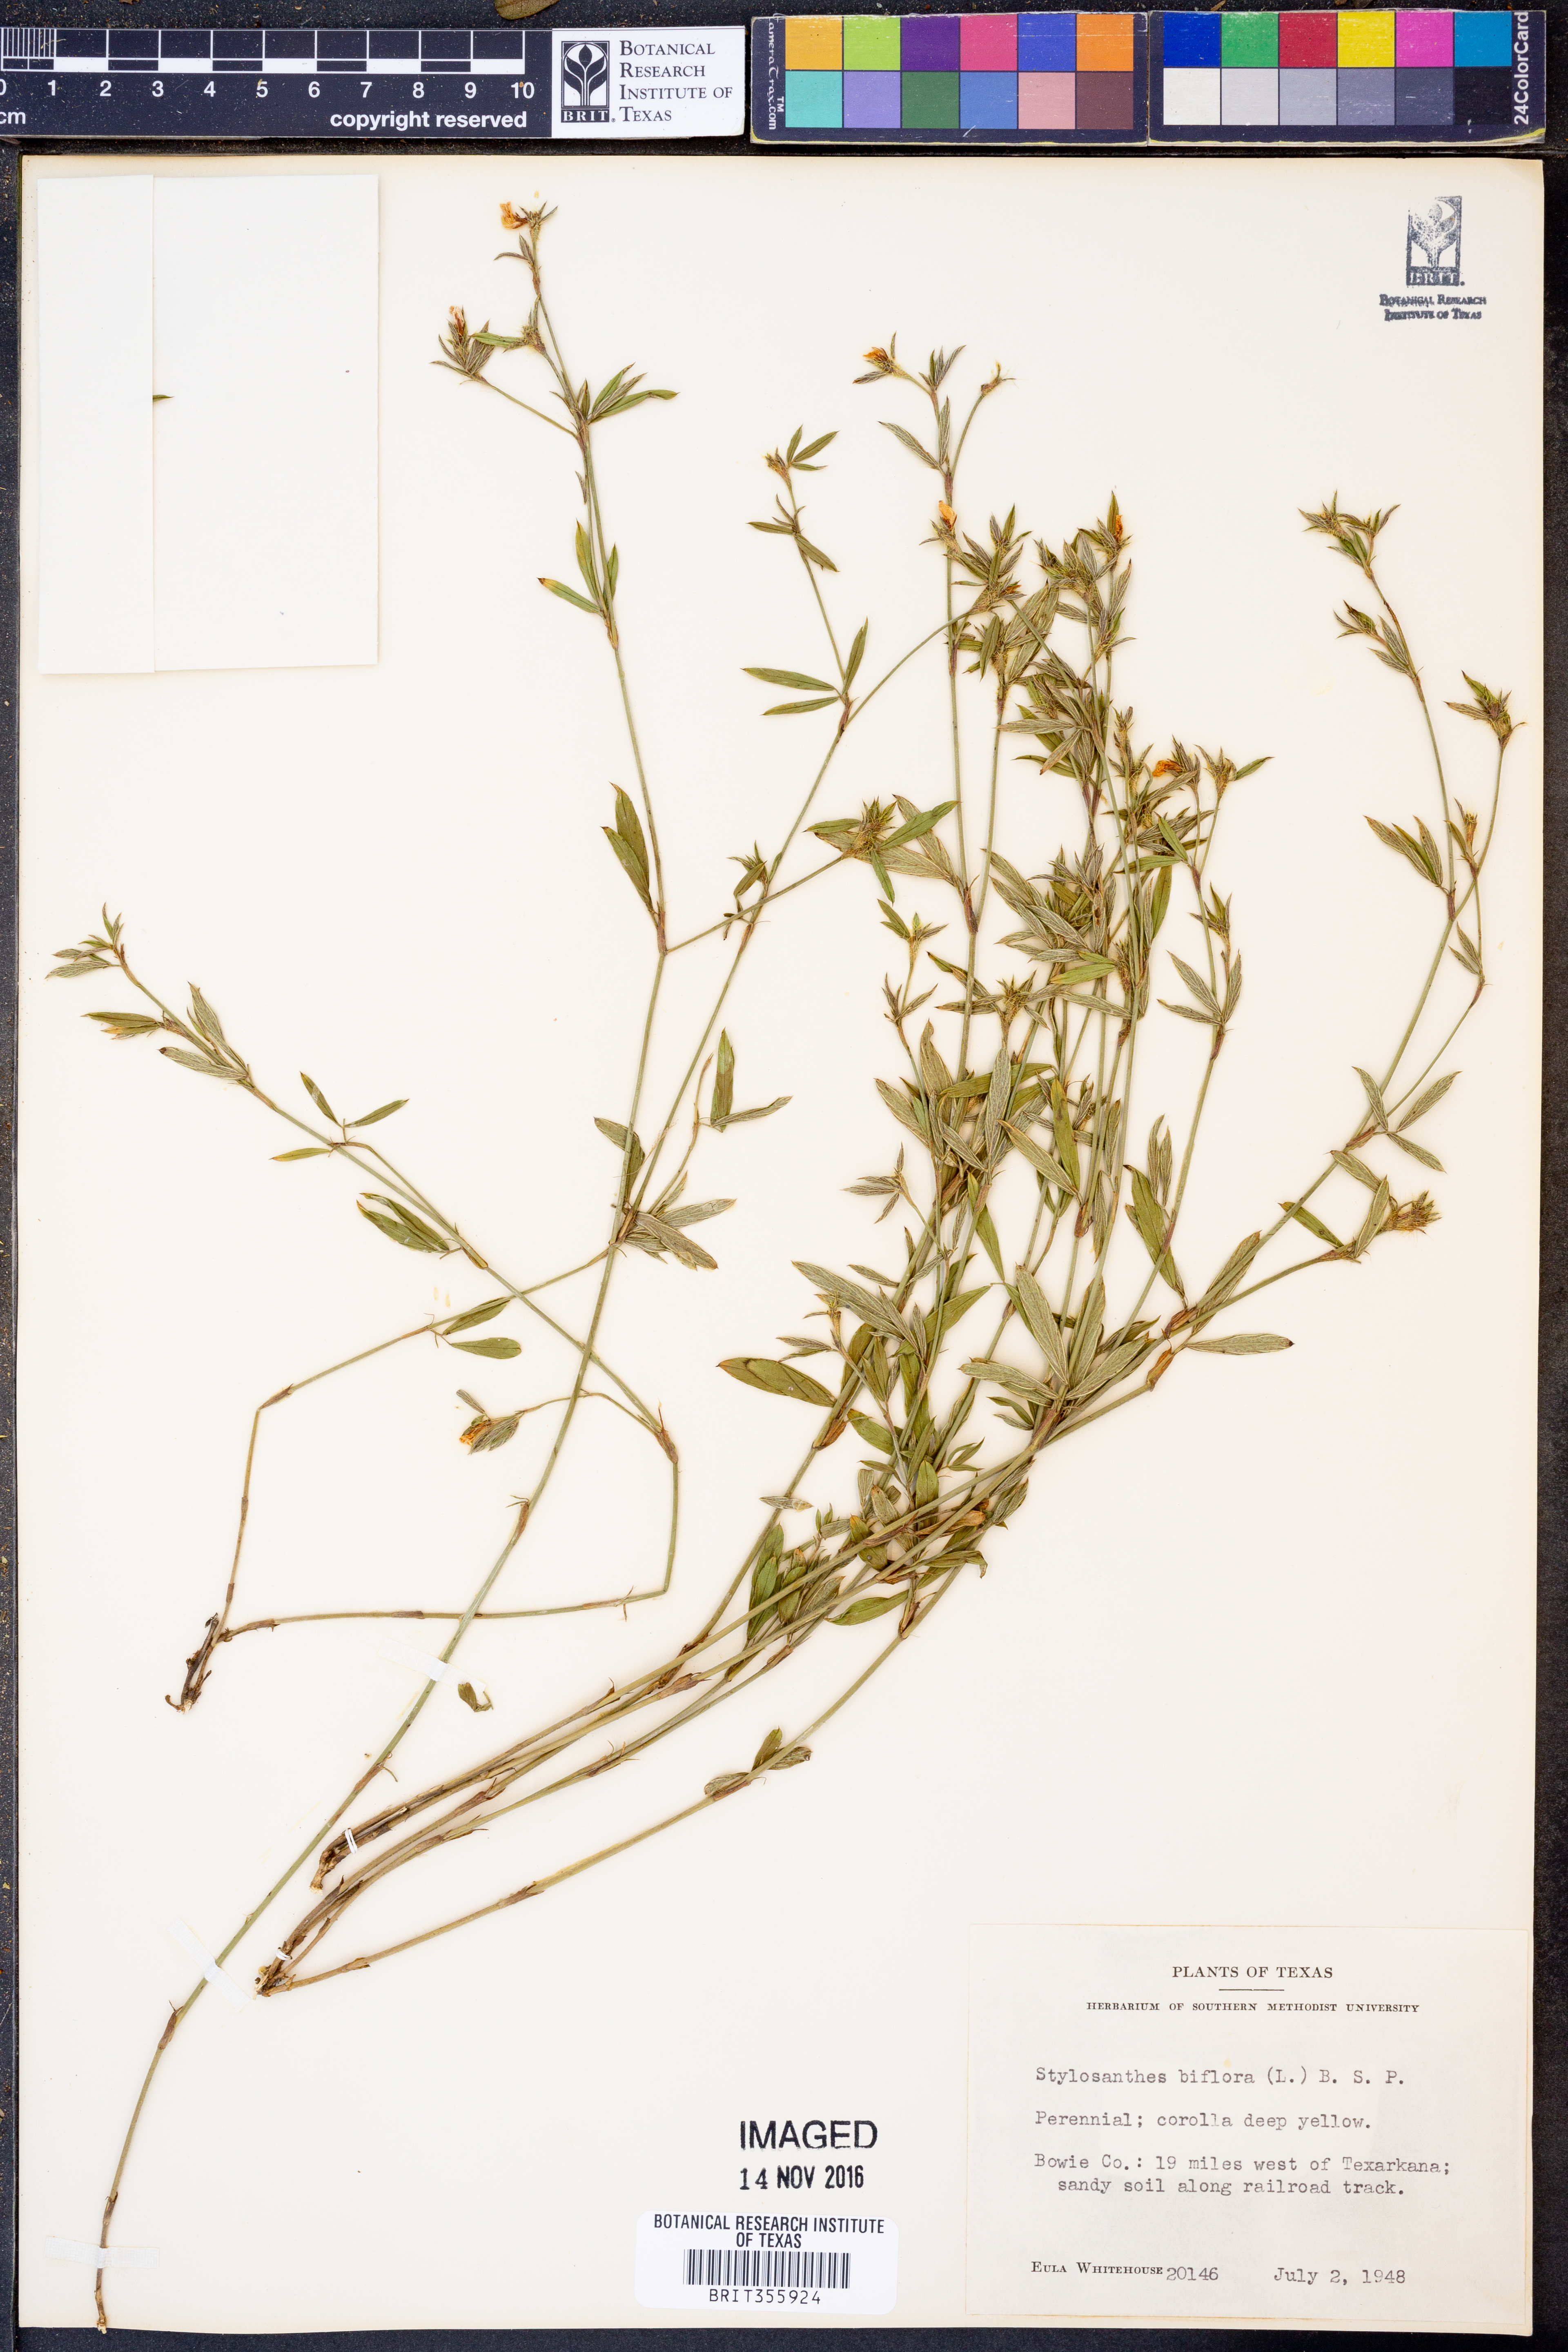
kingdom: Plantae
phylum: Tracheophyta
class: Magnoliopsida
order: Fabales
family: Fabaceae
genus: Stylosanthes
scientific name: Stylosanthes biflora
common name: Two-flower pencil-flower
